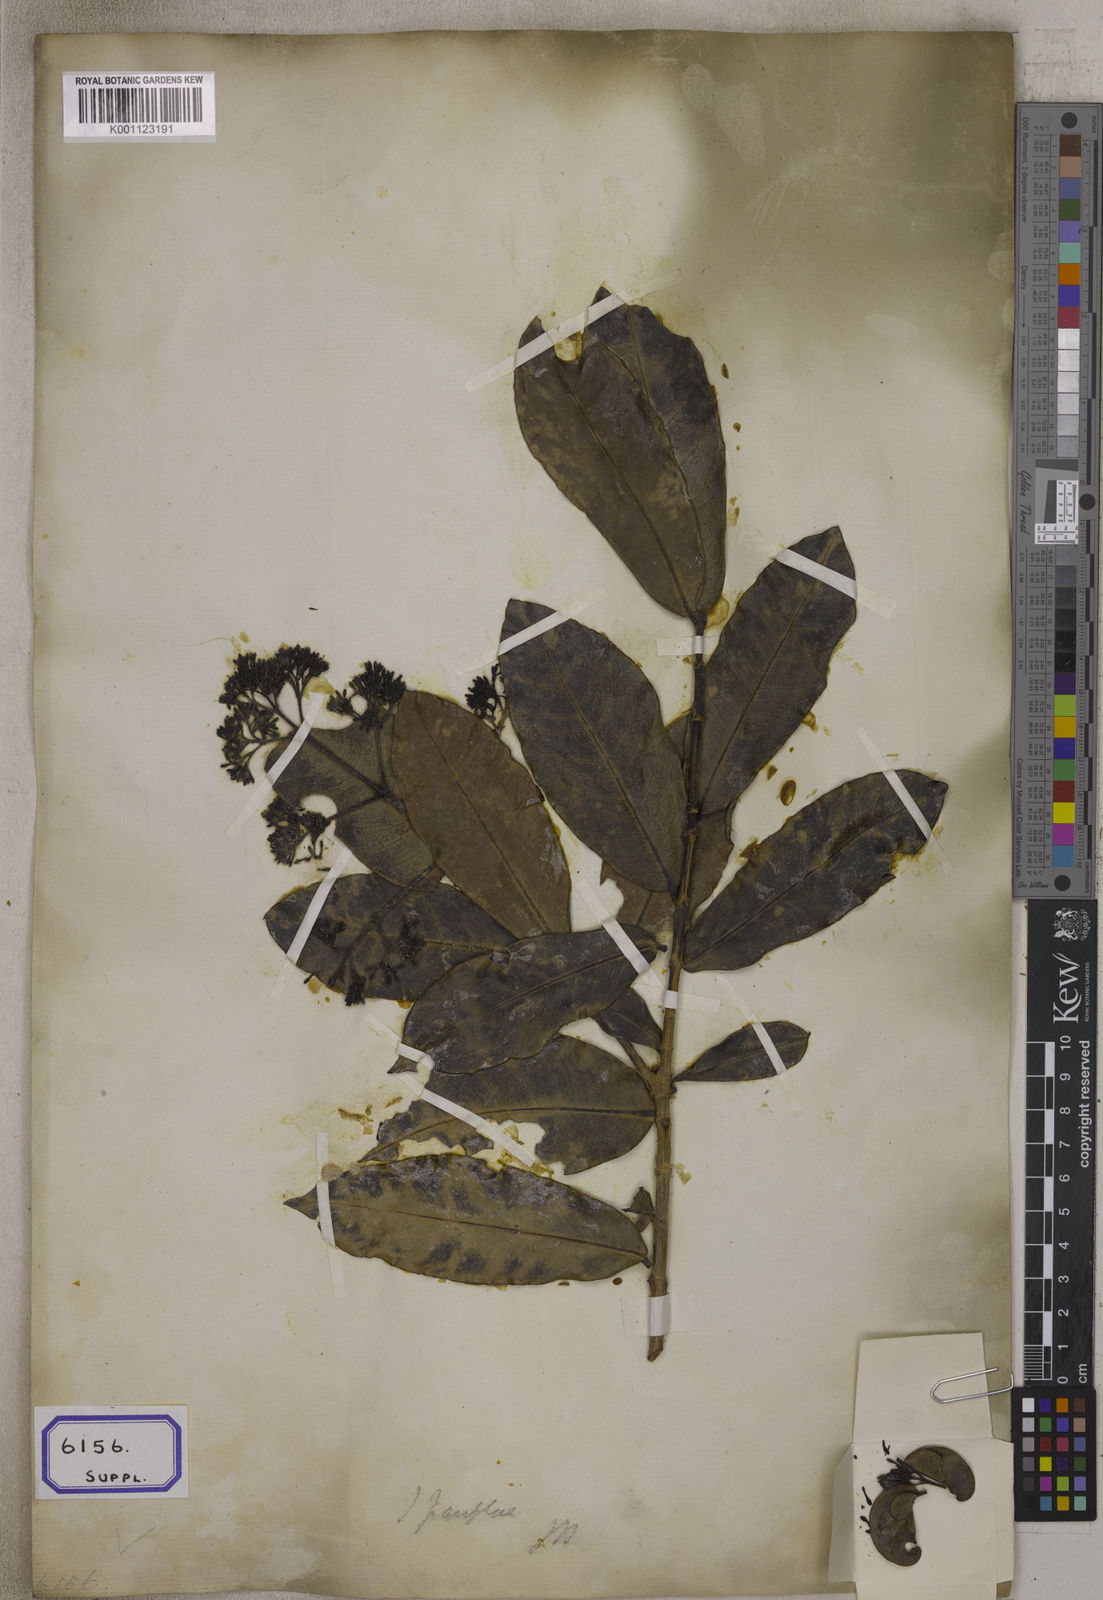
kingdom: Plantae
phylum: Tracheophyta
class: Magnoliopsida
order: Gentianales
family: Rubiaceae
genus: Ixora
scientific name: Ixora pavetta
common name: Torch tree
